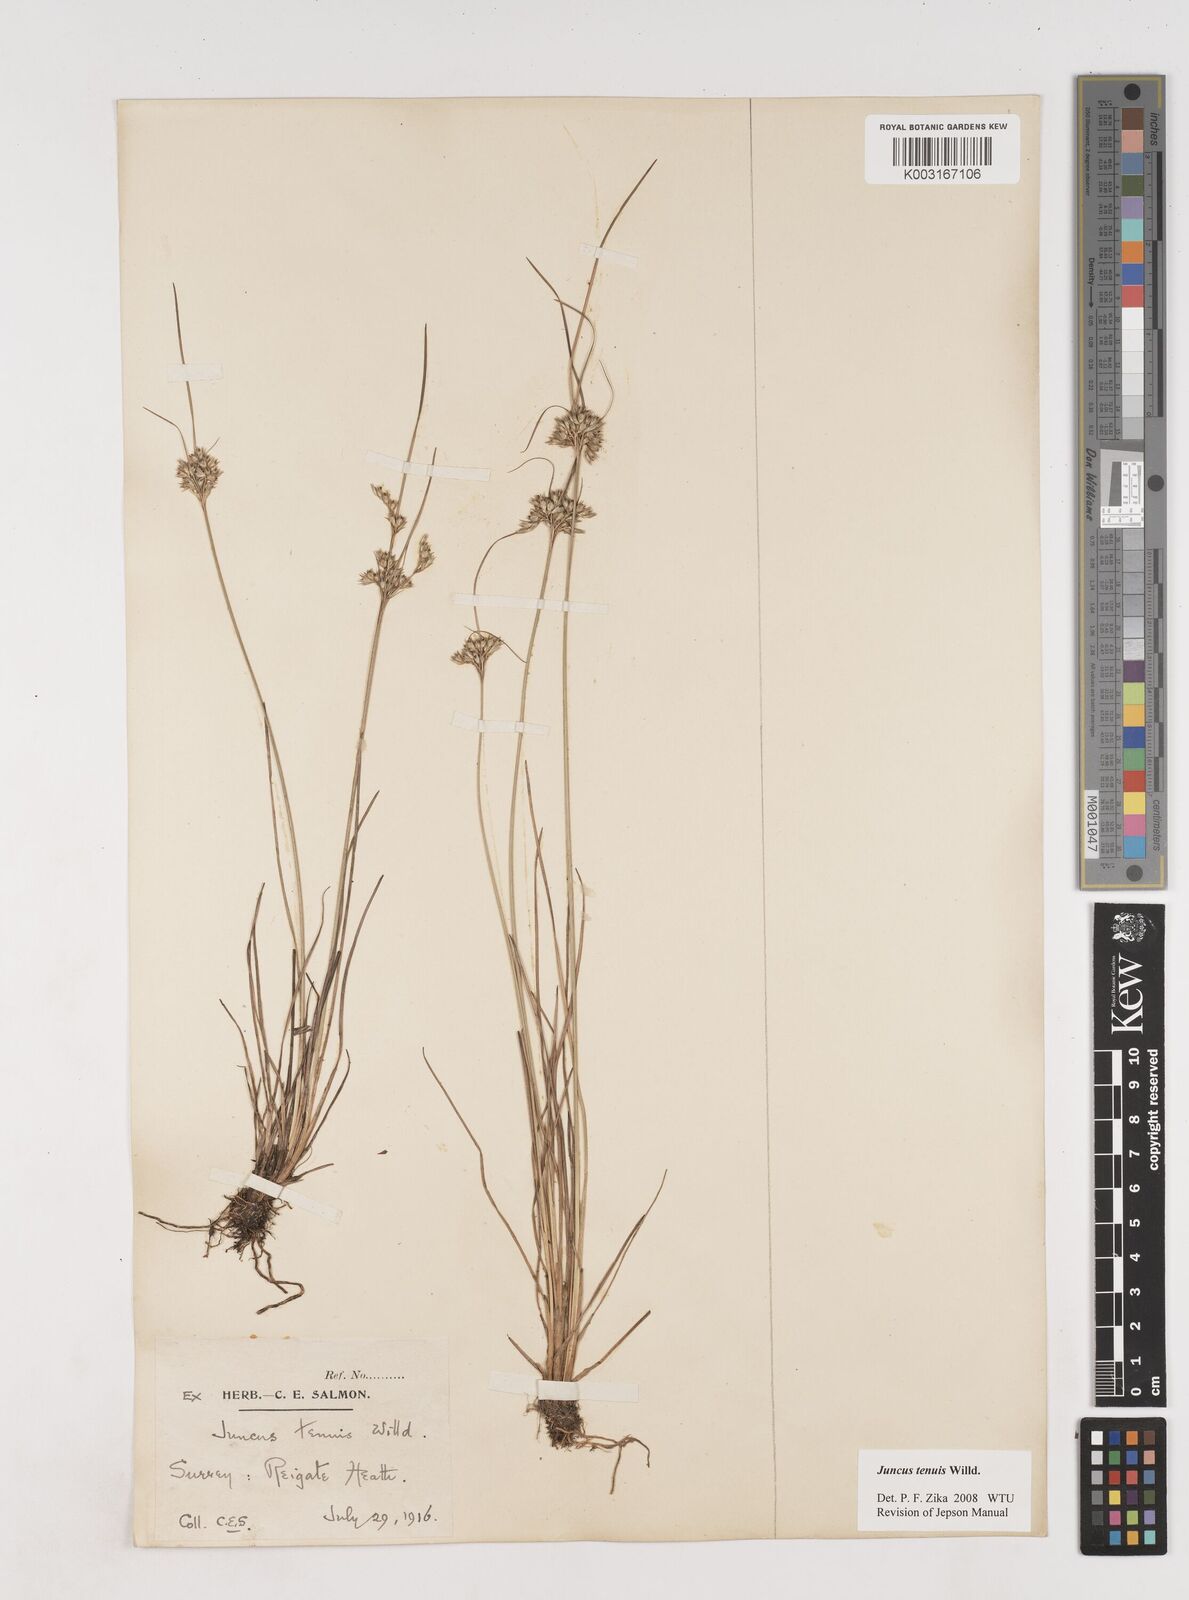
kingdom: Plantae
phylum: Tracheophyta
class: Liliopsida
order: Poales
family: Juncaceae
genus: Juncus
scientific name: Juncus occidentalis
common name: Western rush
